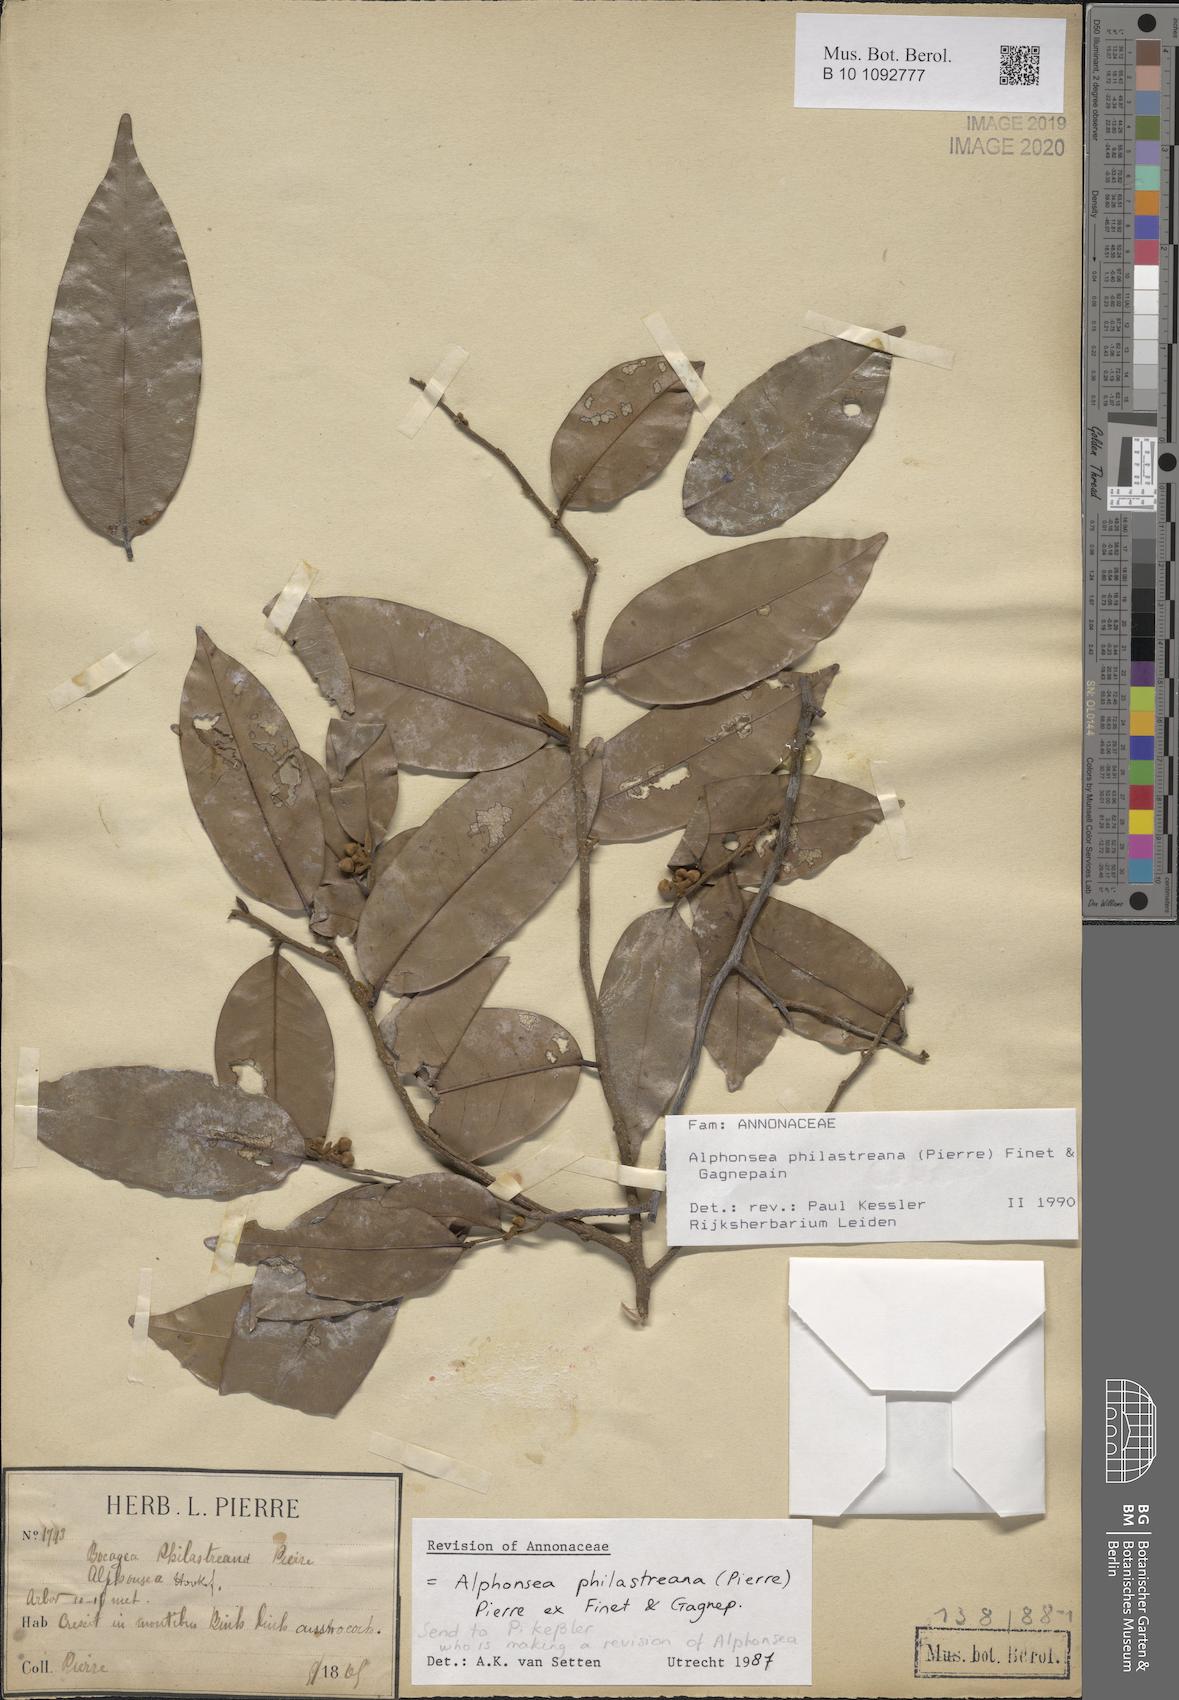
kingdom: Plantae
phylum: Tracheophyta
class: Magnoliopsida
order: Magnoliales
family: Annonaceae
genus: Alphonsea
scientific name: Alphonsea philastreana
